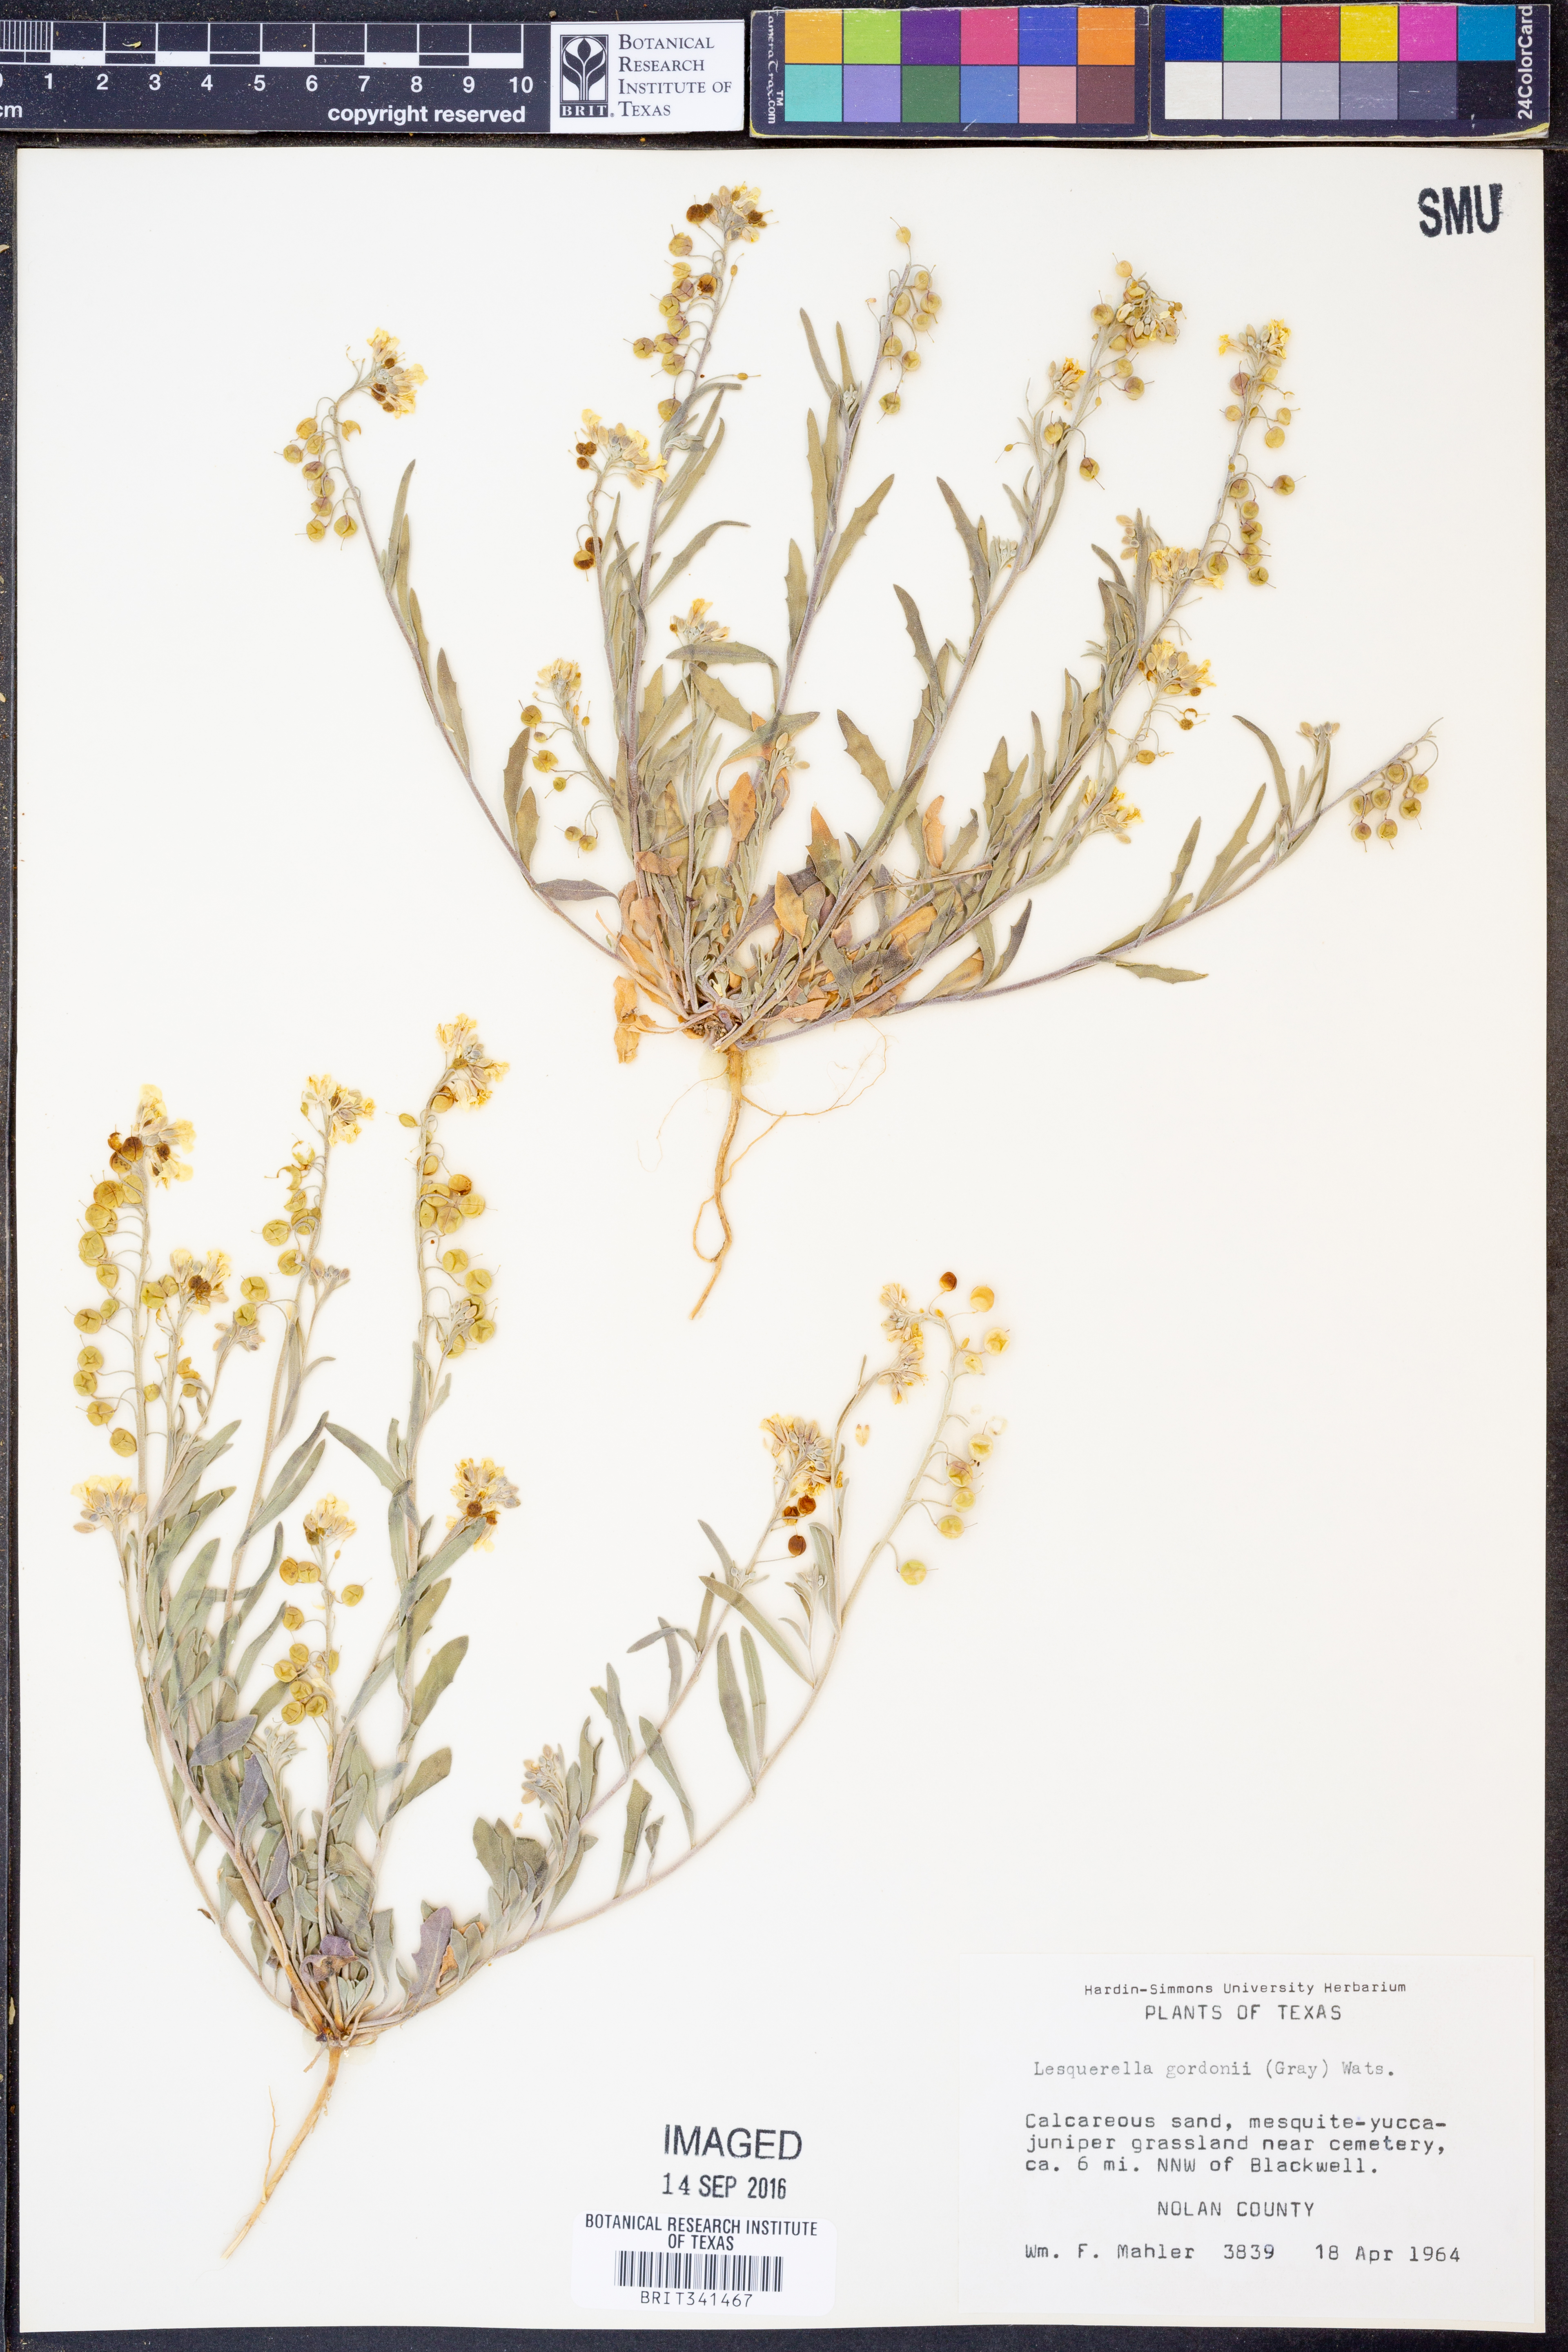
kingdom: Plantae
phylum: Tracheophyta
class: Magnoliopsida
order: Brassicales
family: Brassicaceae
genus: Physaria
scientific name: Physaria gordonii
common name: Gordon's bladderpod
